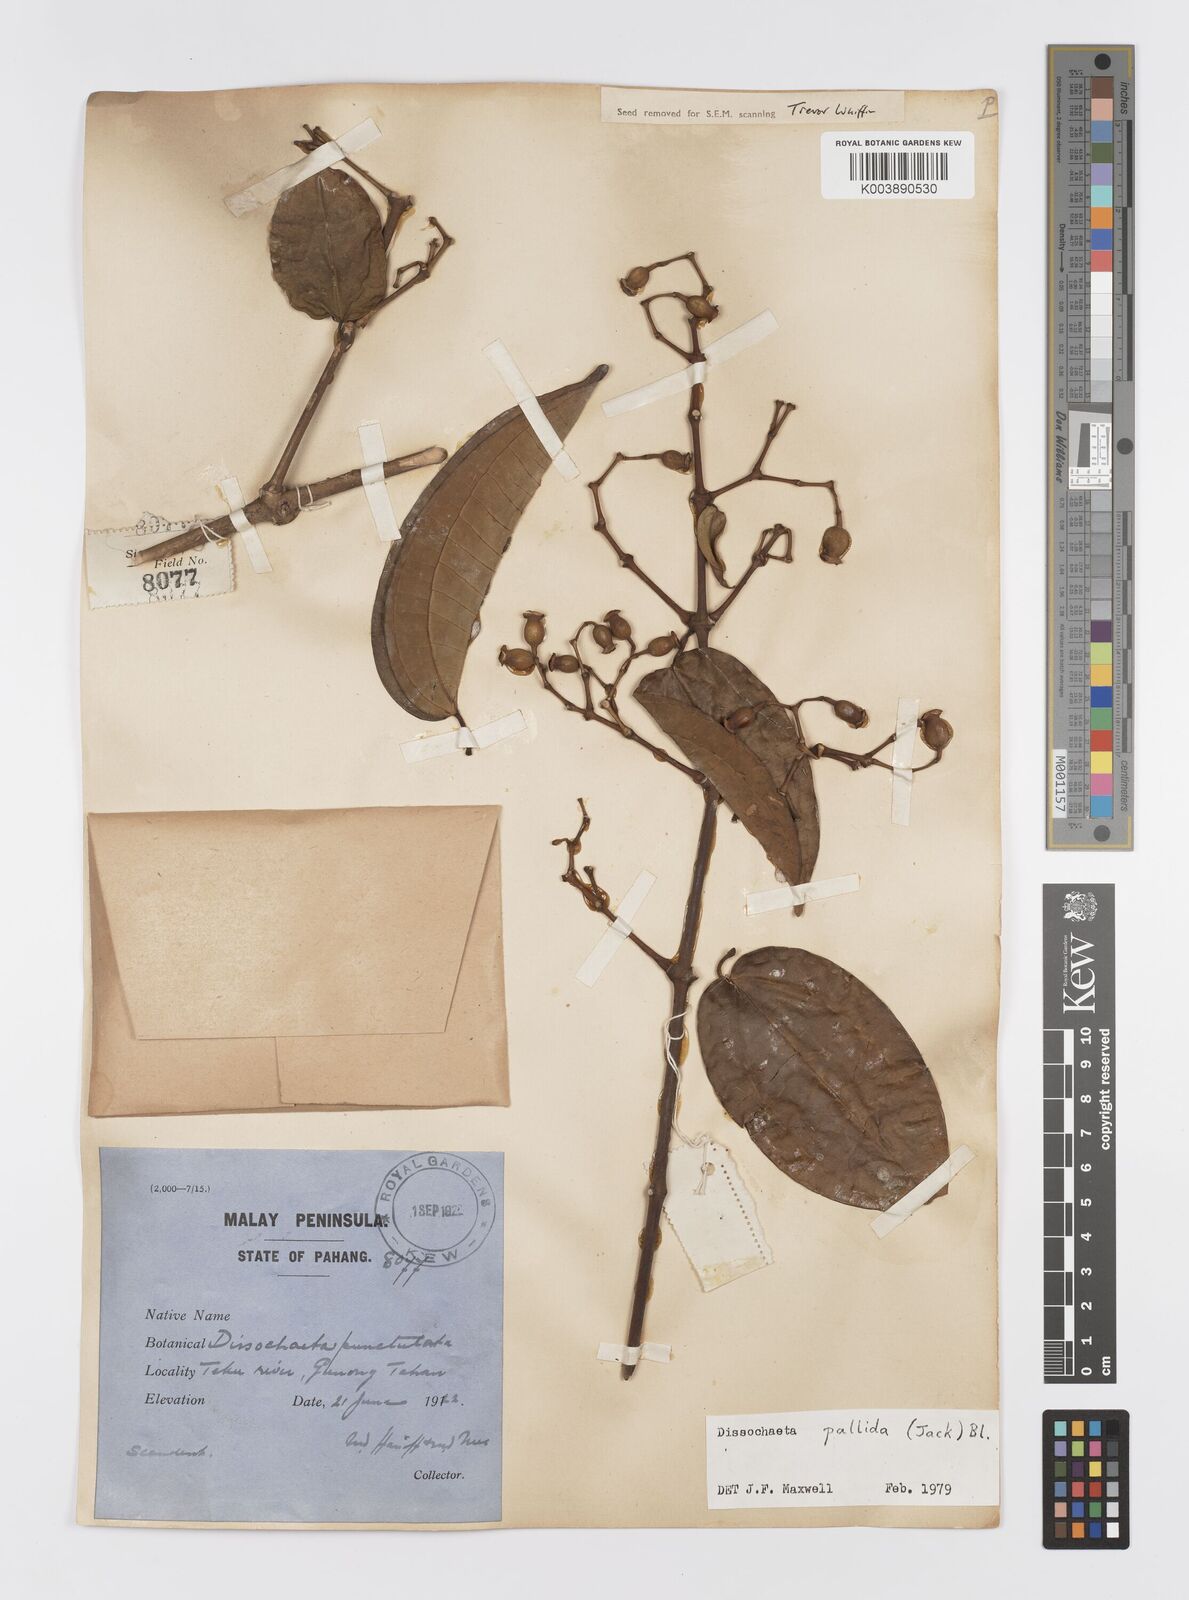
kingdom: Plantae
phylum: Tracheophyta
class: Magnoliopsida
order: Myrtales
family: Melastomataceae
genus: Dissochaeta
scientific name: Dissochaeta pallida
